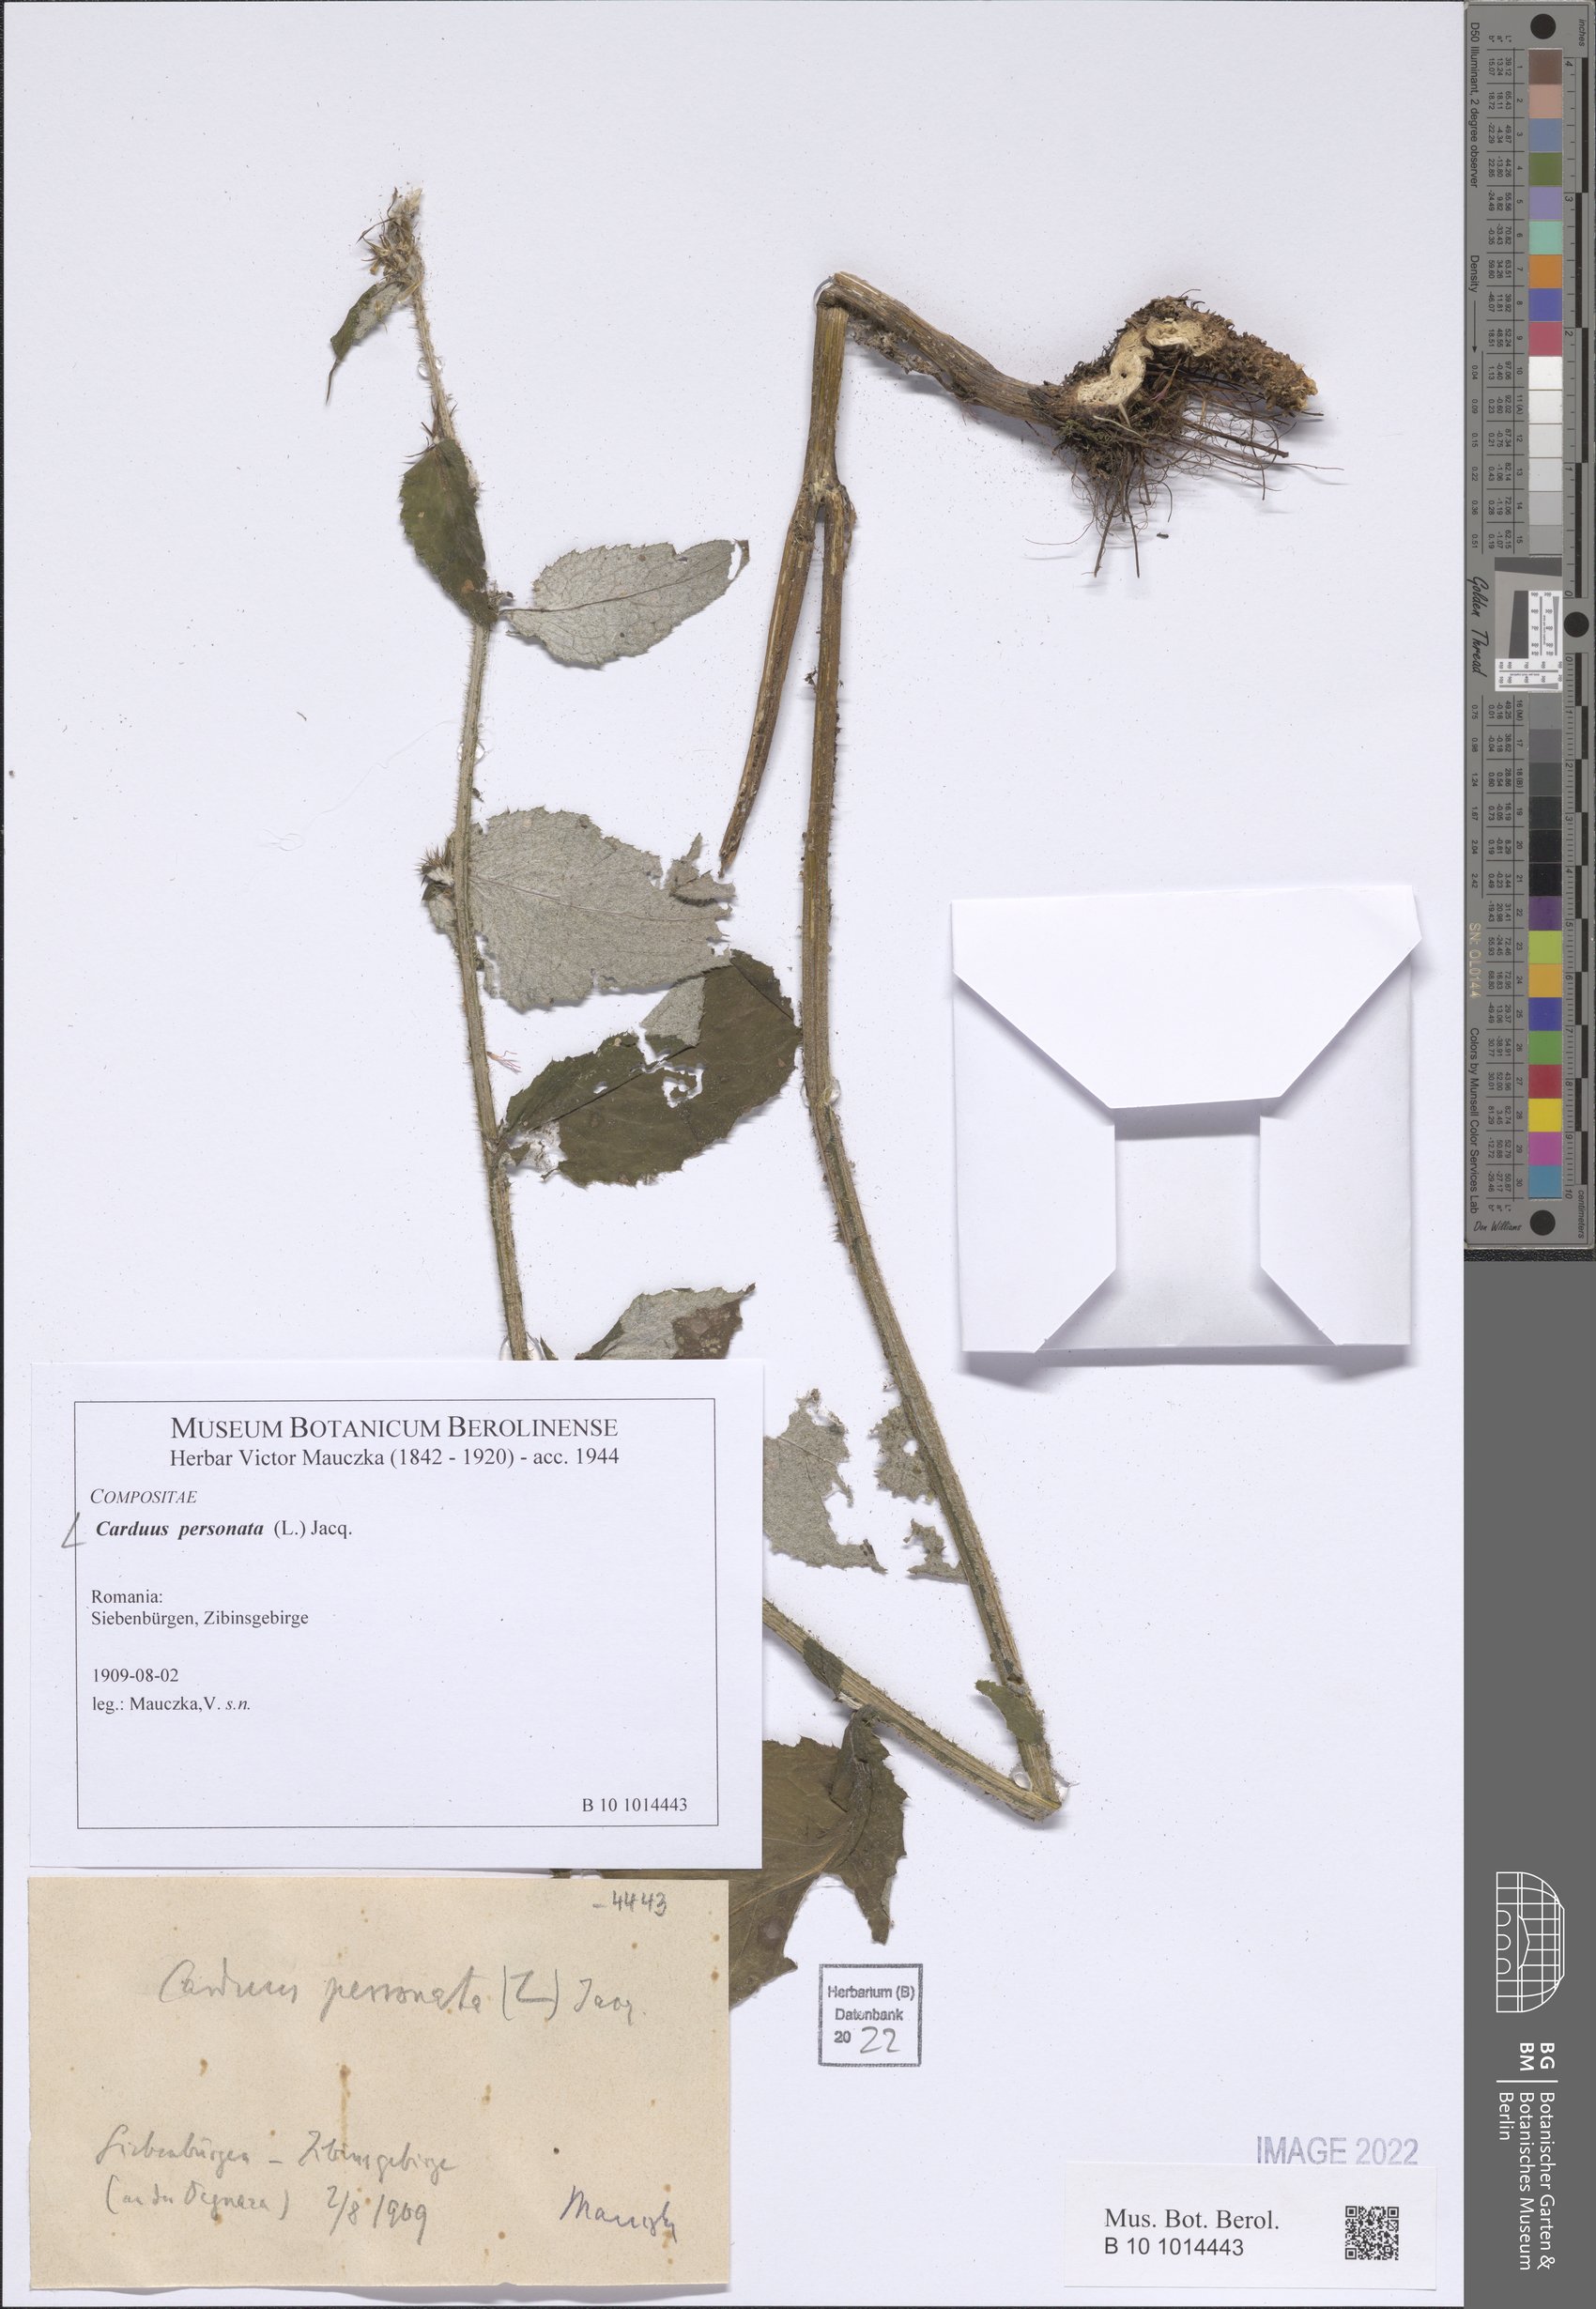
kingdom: Plantae
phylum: Tracheophyta
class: Magnoliopsida
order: Asterales
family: Asteraceae
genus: Carduus
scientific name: Carduus personata
